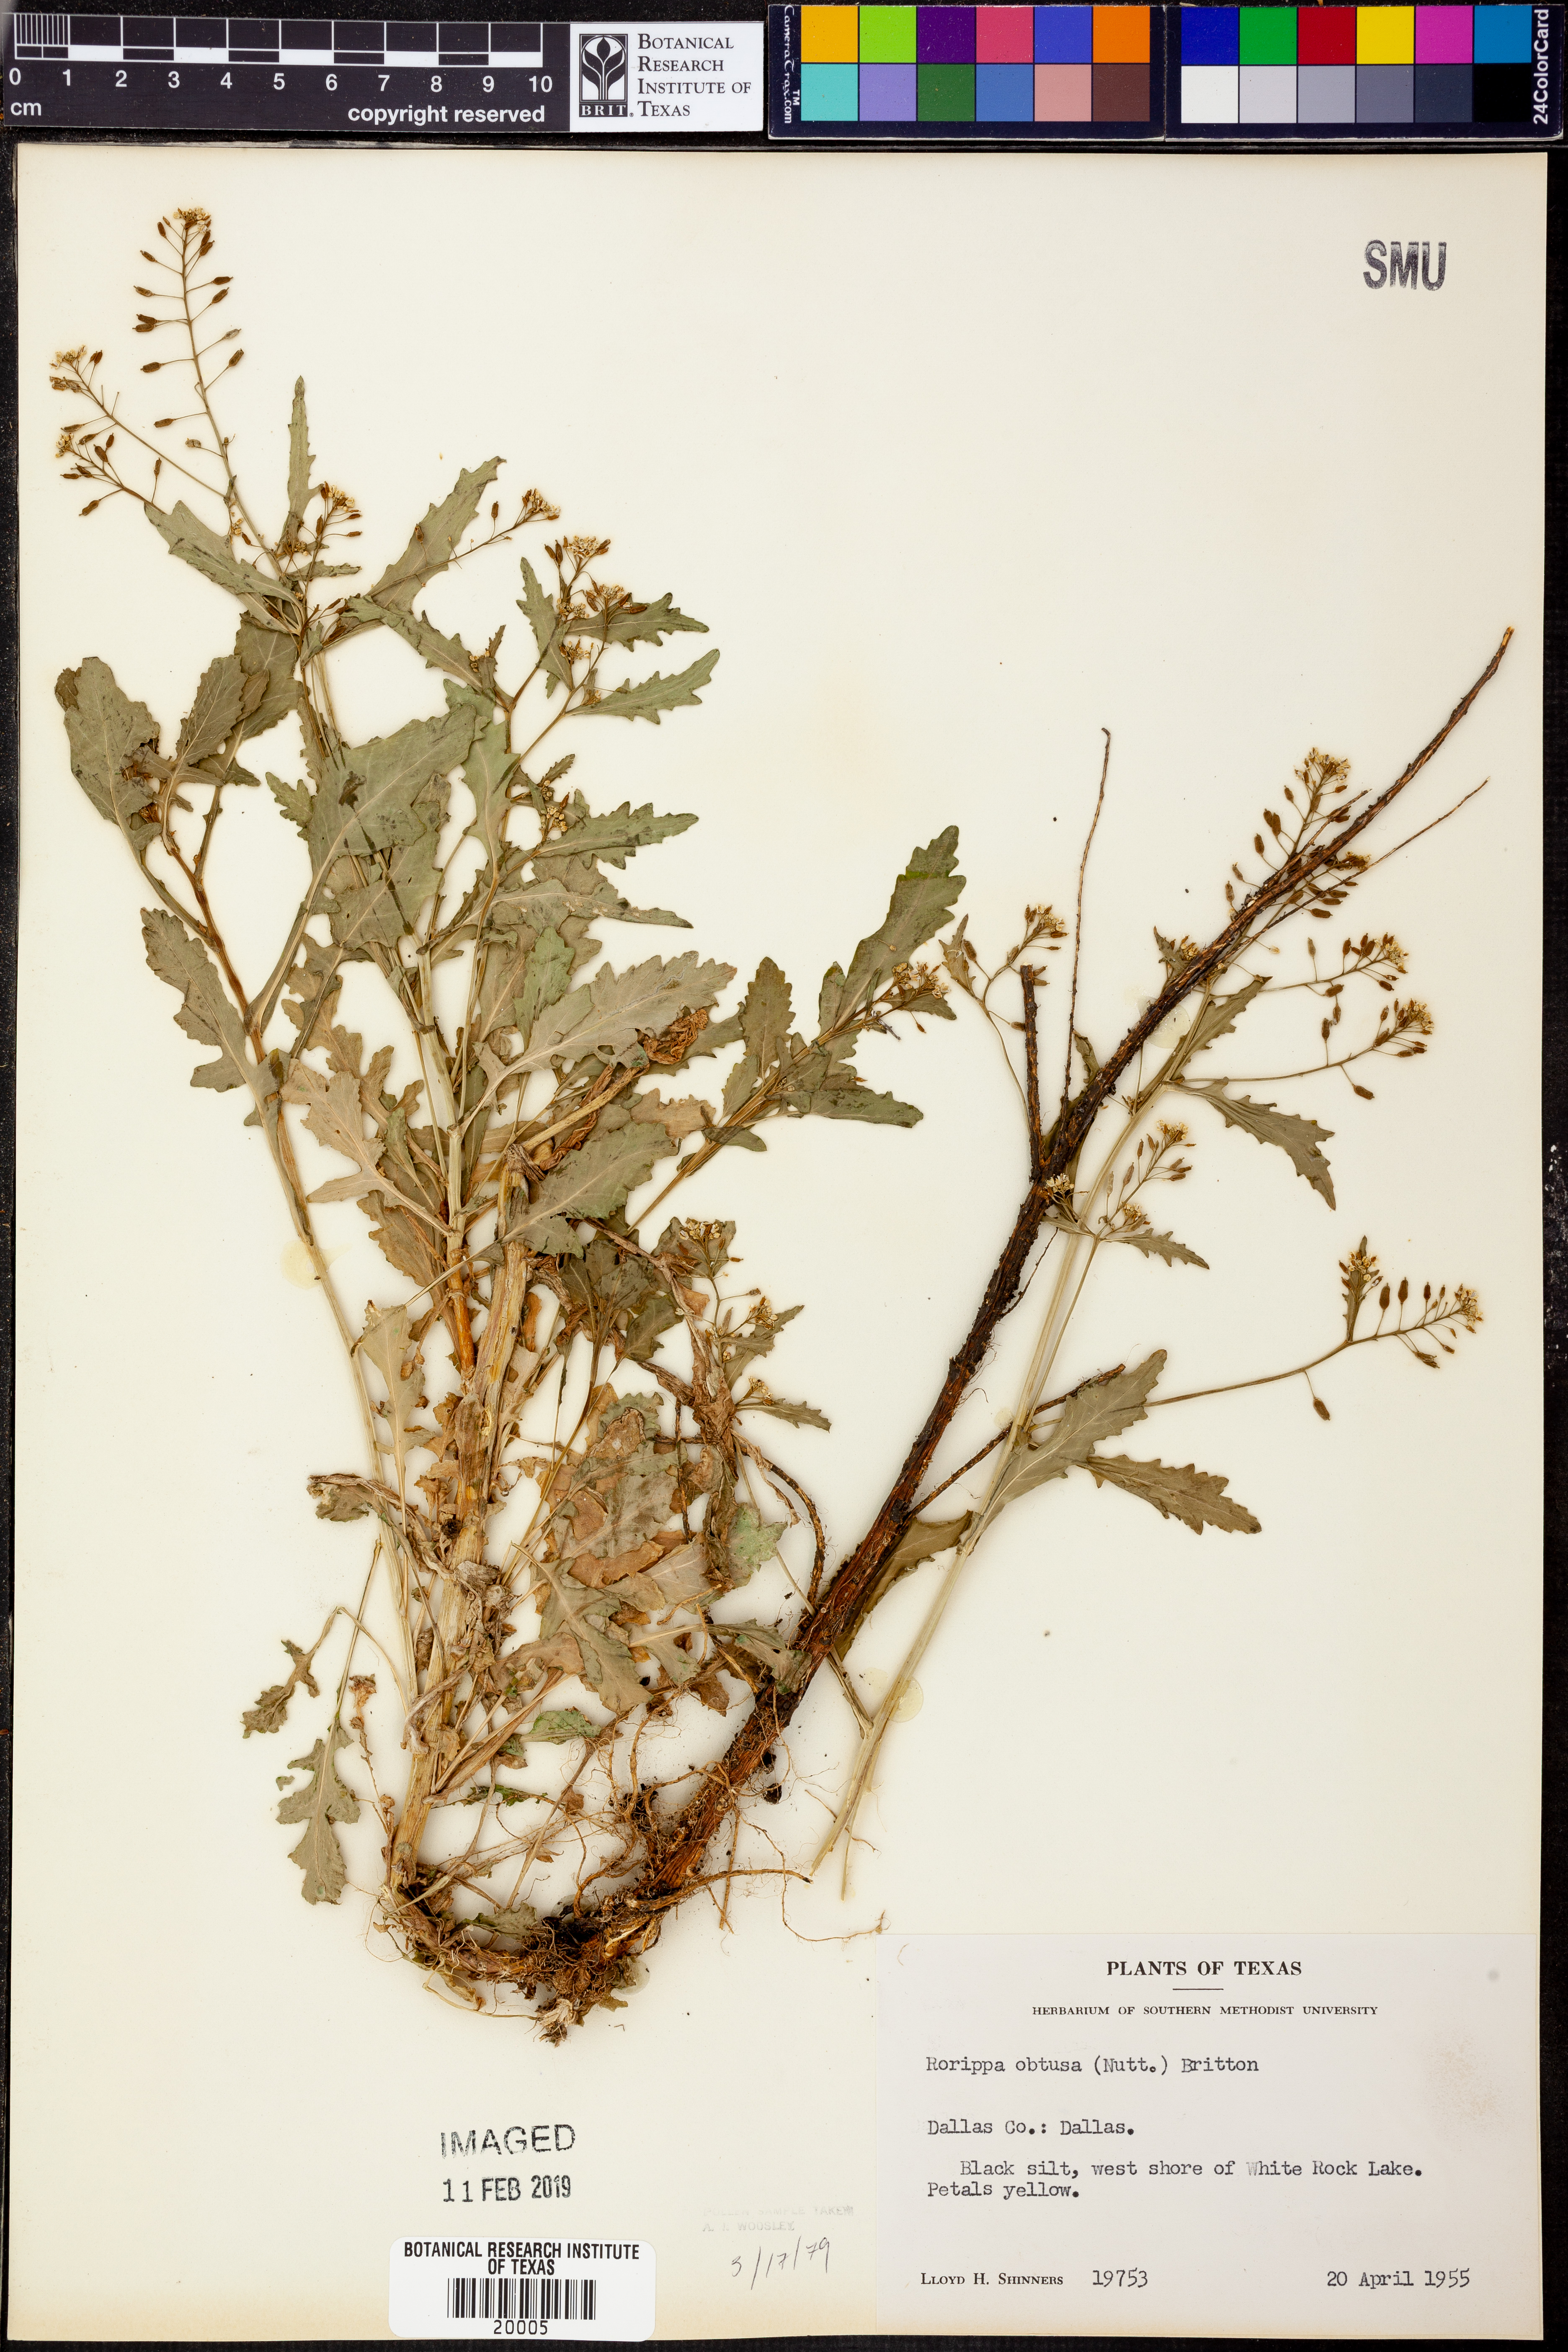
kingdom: Plantae
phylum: Tracheophyta
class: Magnoliopsida
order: Brassicales
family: Brassicaceae
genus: Rorippa
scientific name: Rorippa teres
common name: Southern marsh yellowcress
